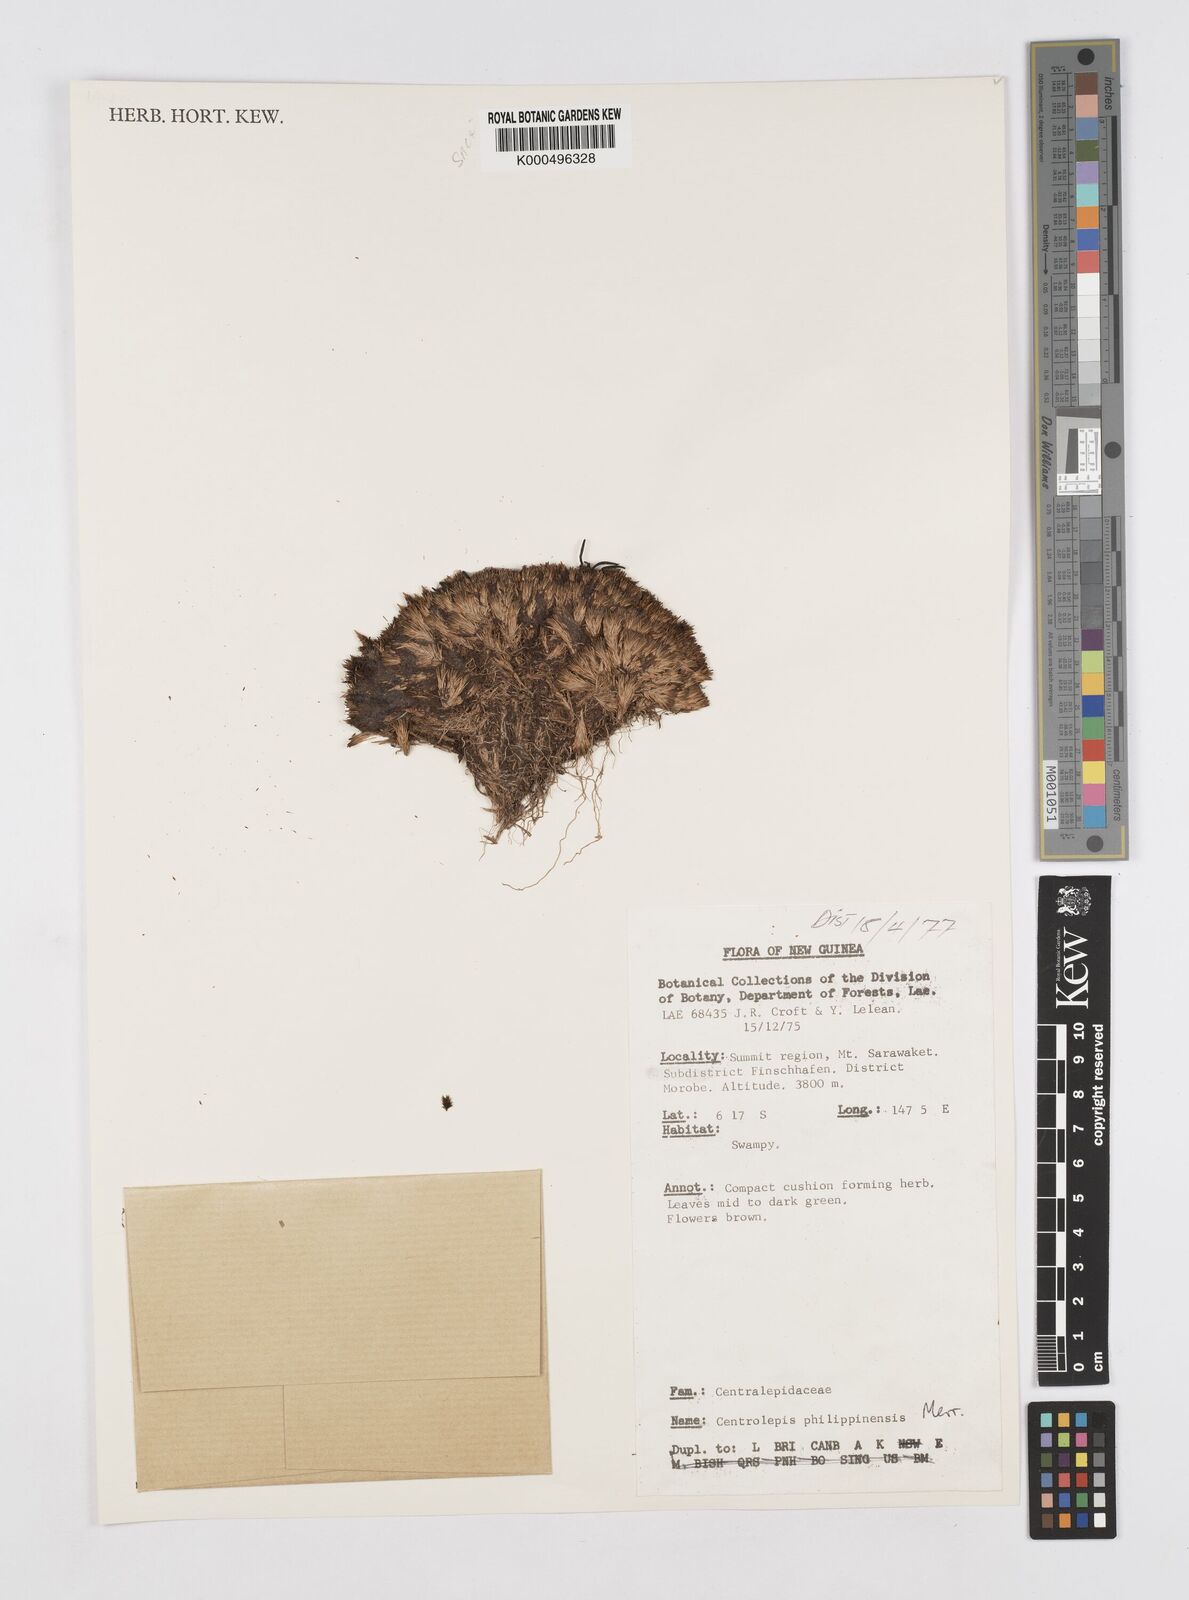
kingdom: Plantae
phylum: Tracheophyta
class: Liliopsida
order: Poales
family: Restionaceae
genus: Centrolepis
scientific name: Centrolepis philippinensis
